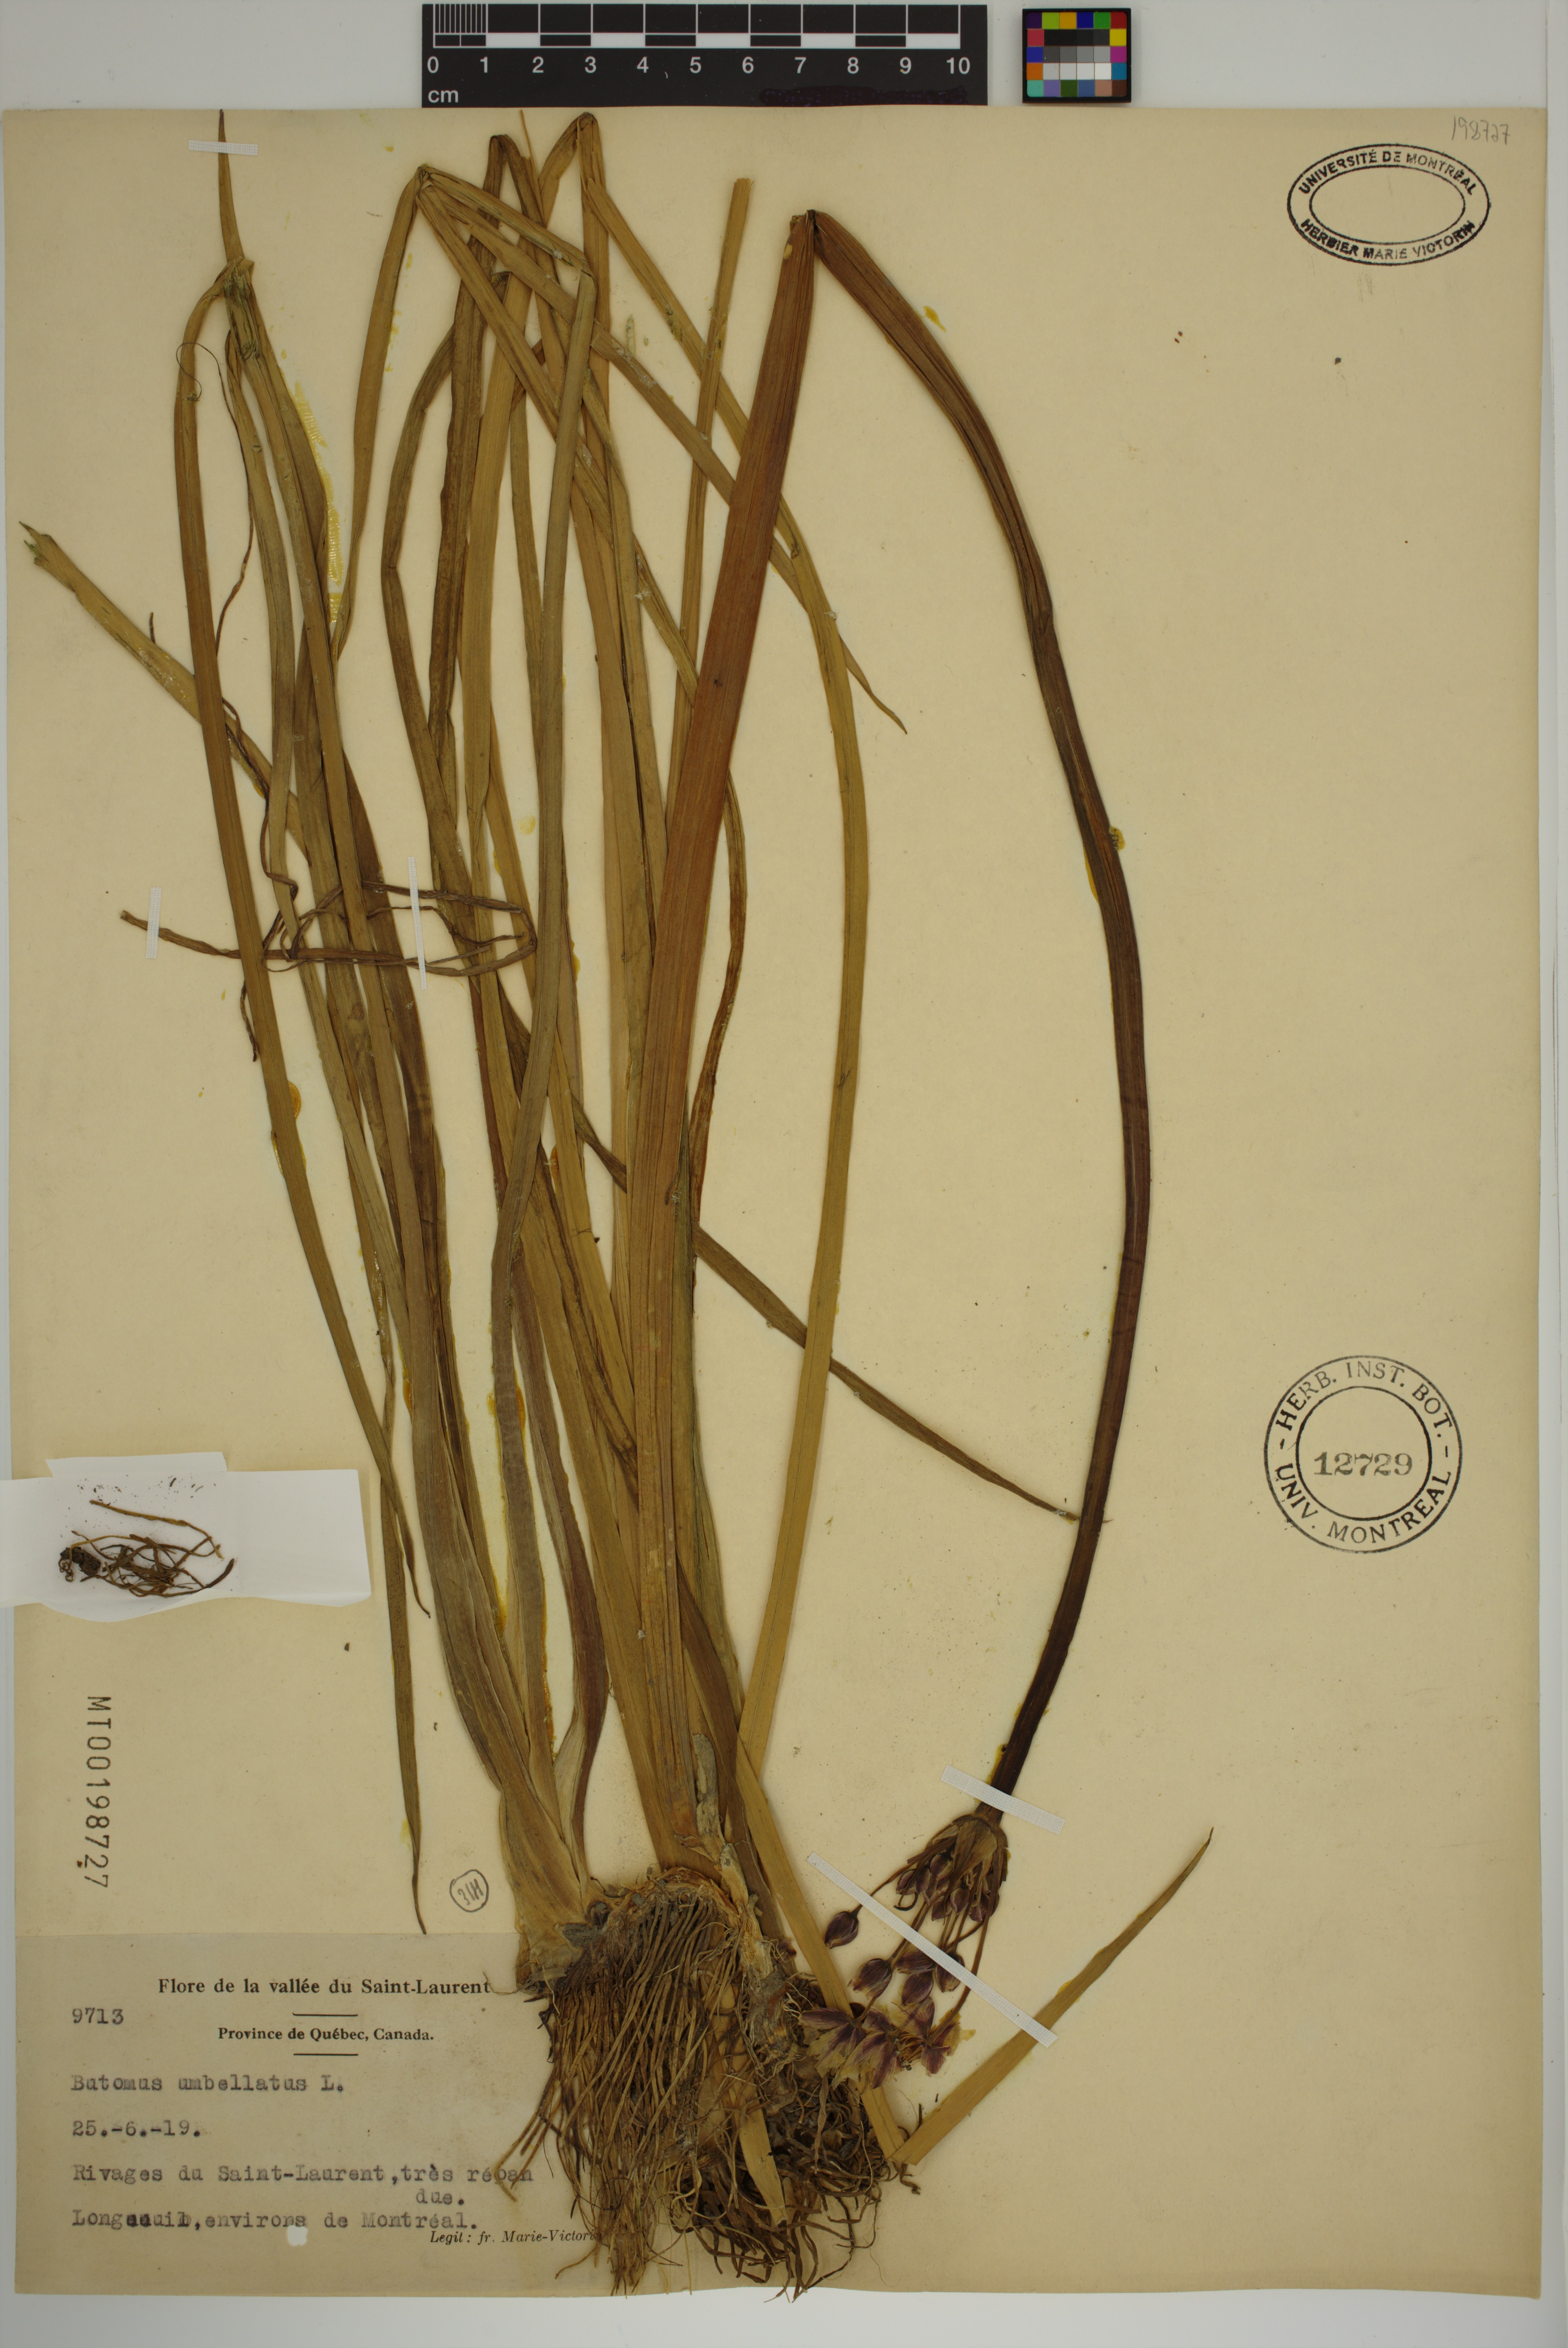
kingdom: Plantae
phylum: Tracheophyta
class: Liliopsida
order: Alismatales
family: Butomaceae
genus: Butomus
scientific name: Butomus umbellatus
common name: Flowering-rush
